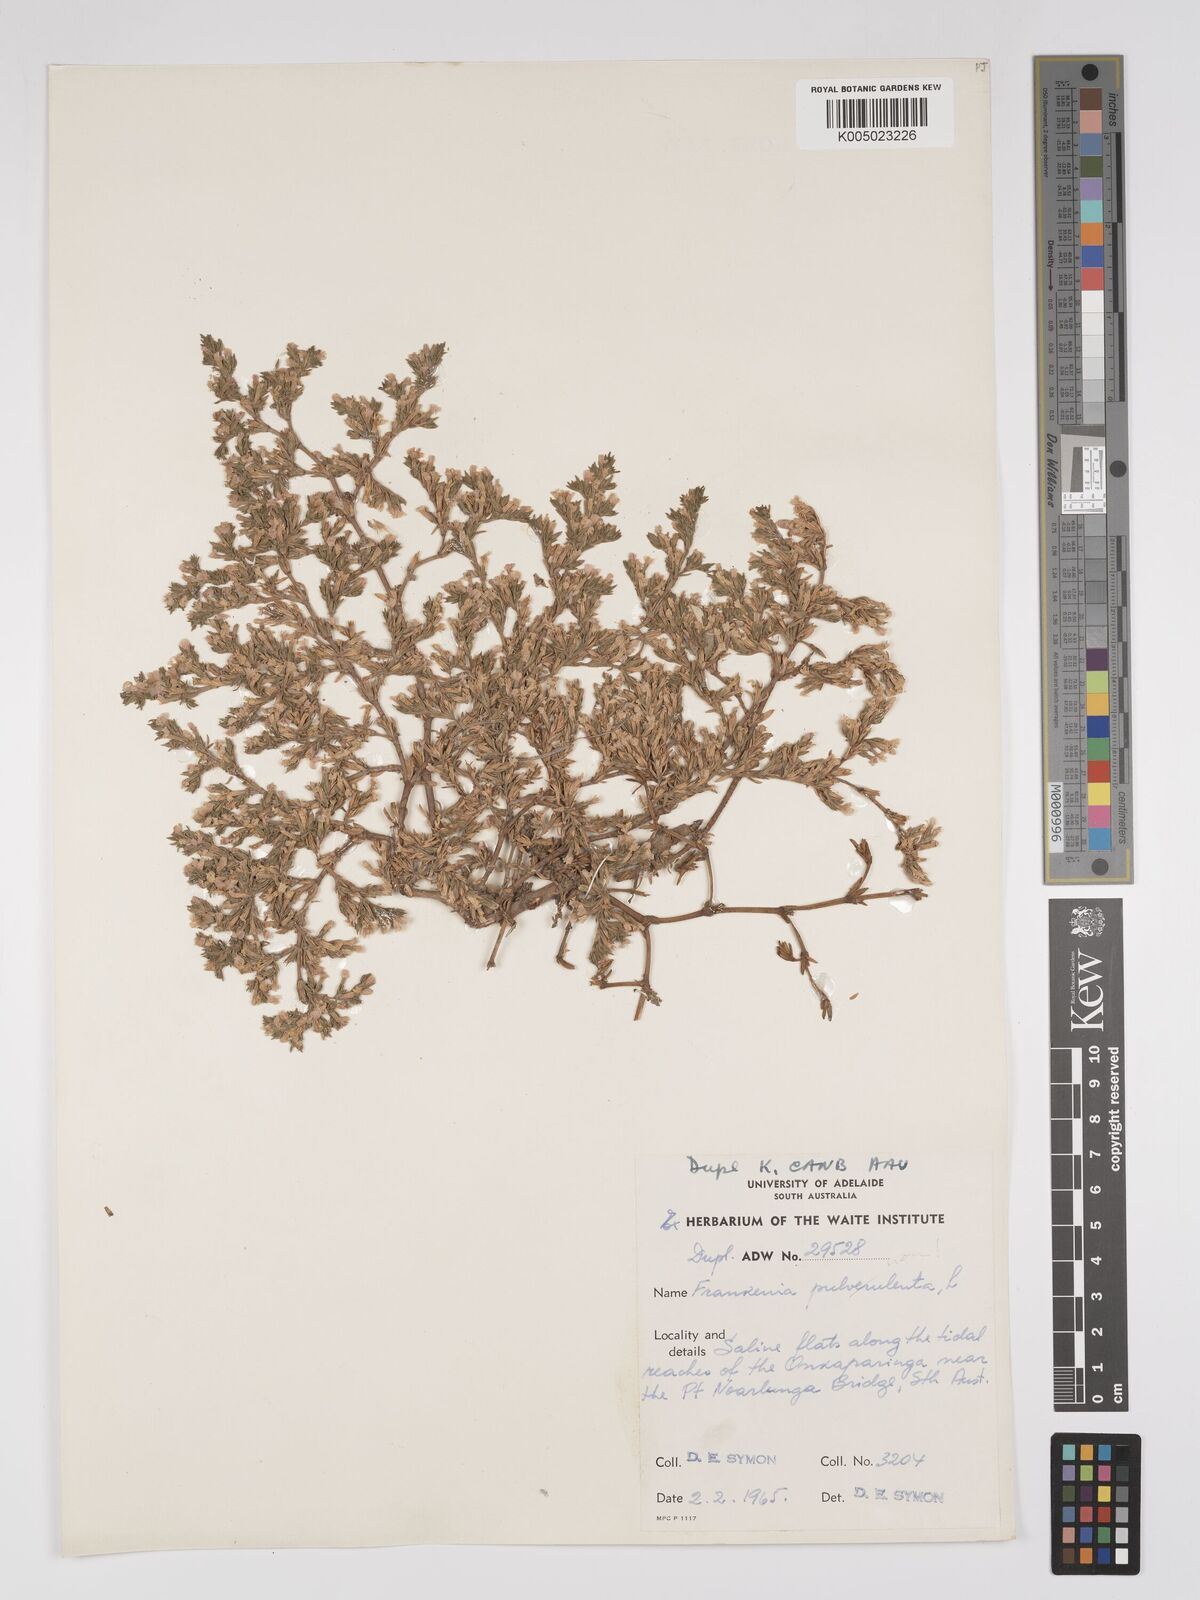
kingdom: Plantae
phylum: Tracheophyta
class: Magnoliopsida
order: Caryophyllales
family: Frankeniaceae
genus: Frankenia
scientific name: Frankenia
